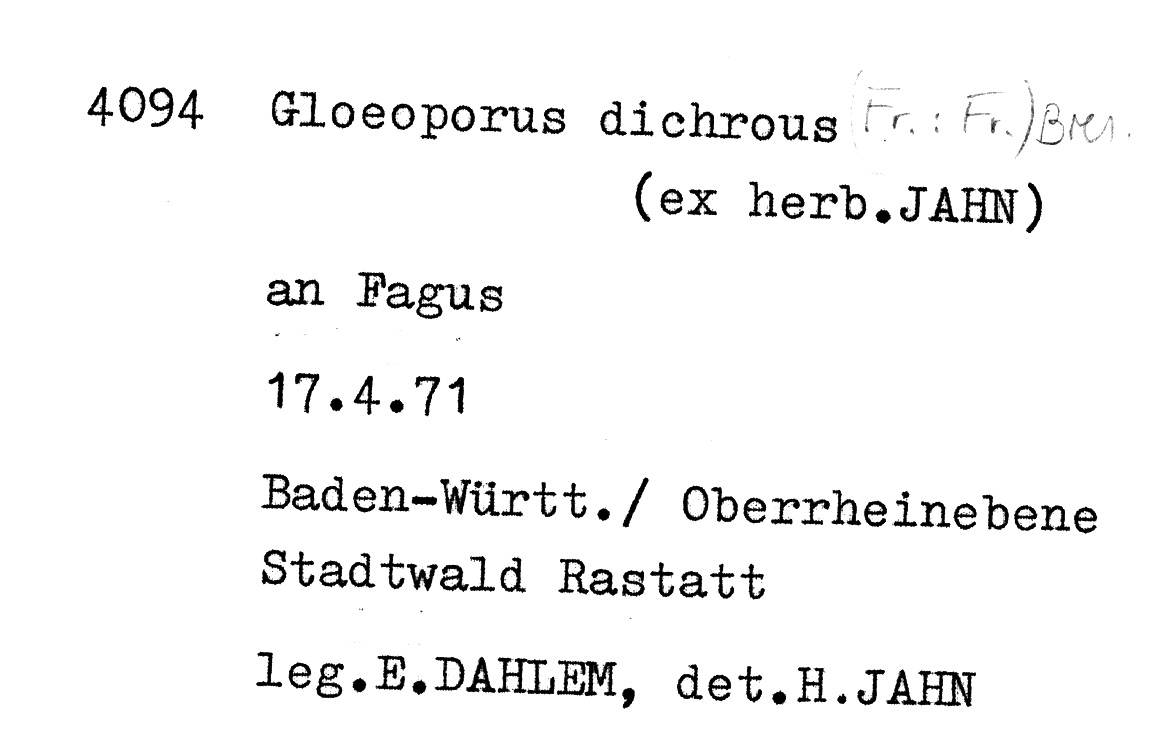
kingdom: Fungi
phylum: Basidiomycota
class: Agaricomycetes
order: Polyporales
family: Irpicaceae
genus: Vitreoporus
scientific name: Vitreoporus dichrous
